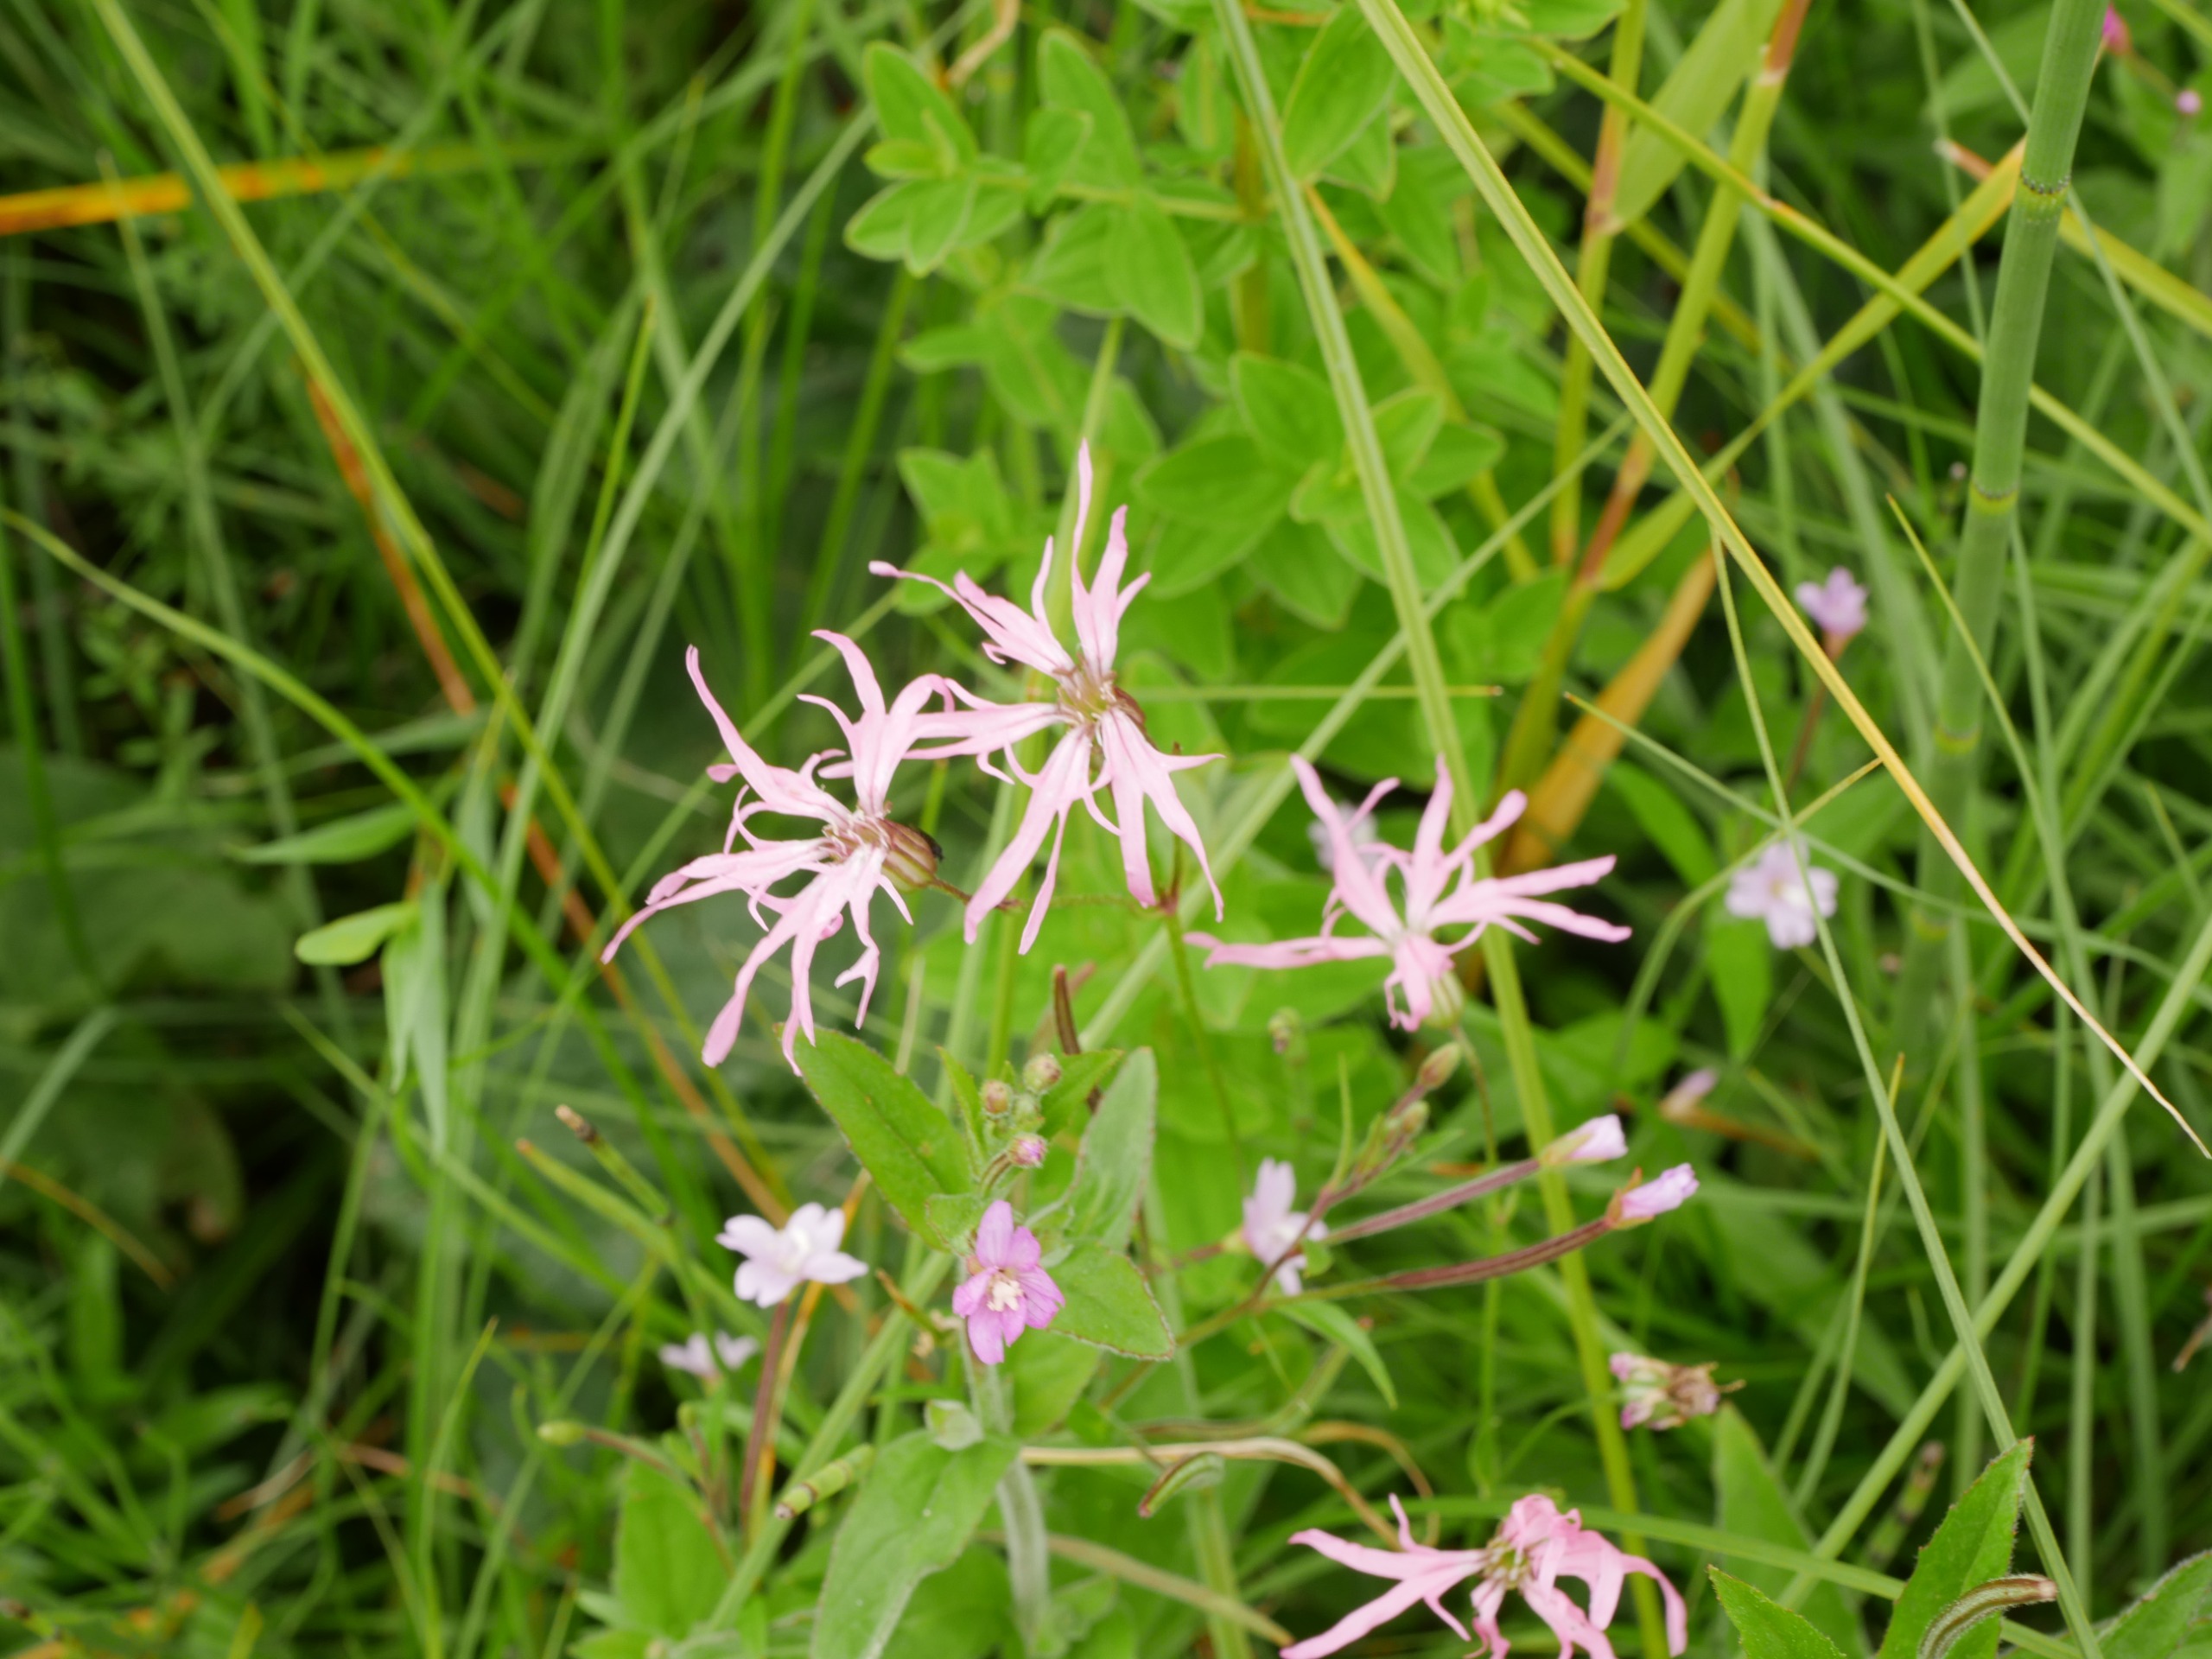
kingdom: Plantae
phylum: Tracheophyta
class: Magnoliopsida
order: Caryophyllales
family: Caryophyllaceae
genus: Silene
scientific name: Silene flos-cuculi
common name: Trævlekrone
